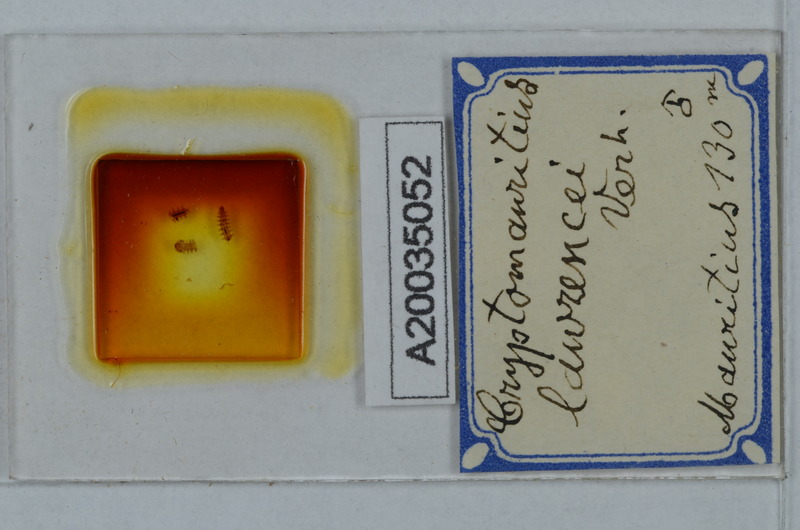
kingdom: Animalia
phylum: Arthropoda
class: Diplopoda
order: Polydesmida
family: Cryptodesmidae
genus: Cryptodesmus
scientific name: Cryptodesmus
